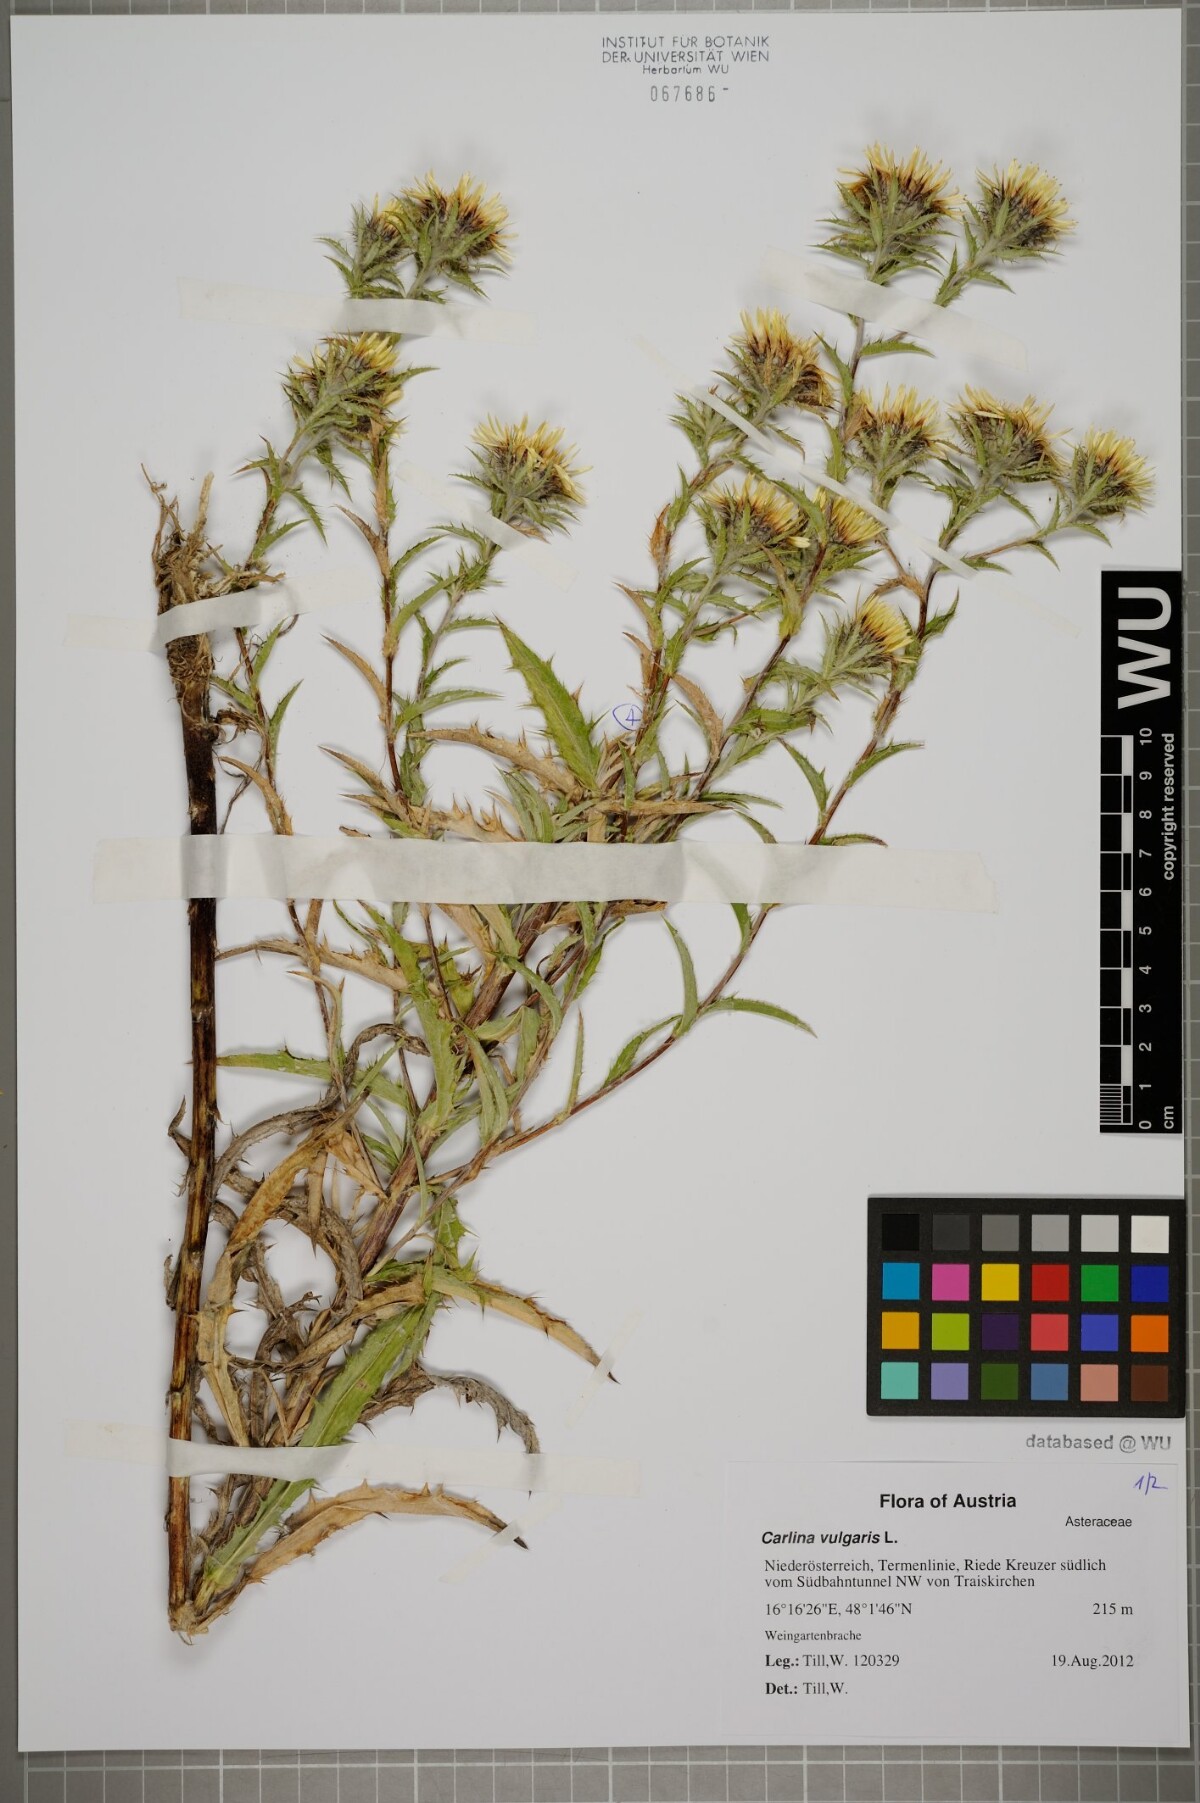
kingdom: Plantae
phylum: Tracheophyta
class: Magnoliopsida
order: Asterales
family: Asteraceae
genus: Carlina
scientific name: Carlina biebersteinii
